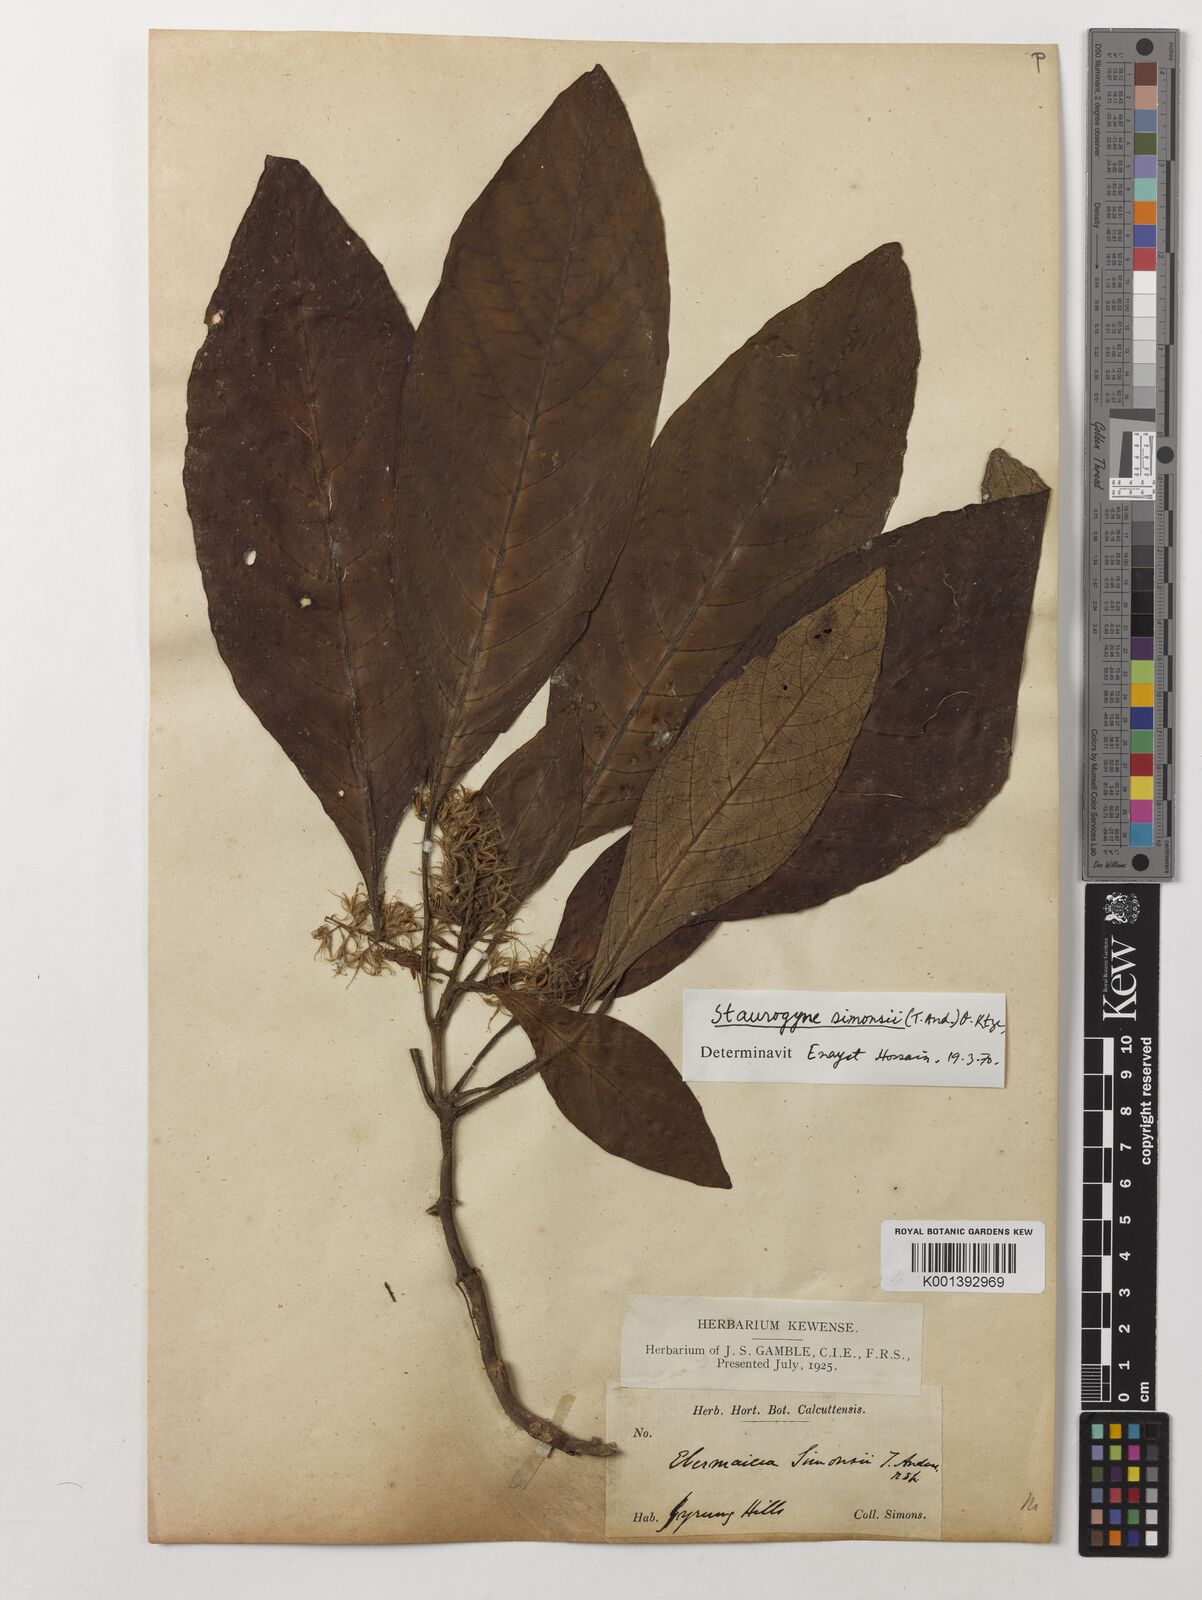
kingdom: Plantae
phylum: Tracheophyta
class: Magnoliopsida
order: Lamiales
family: Acanthaceae
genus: Staurogyne
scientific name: Staurogyne simonsii
